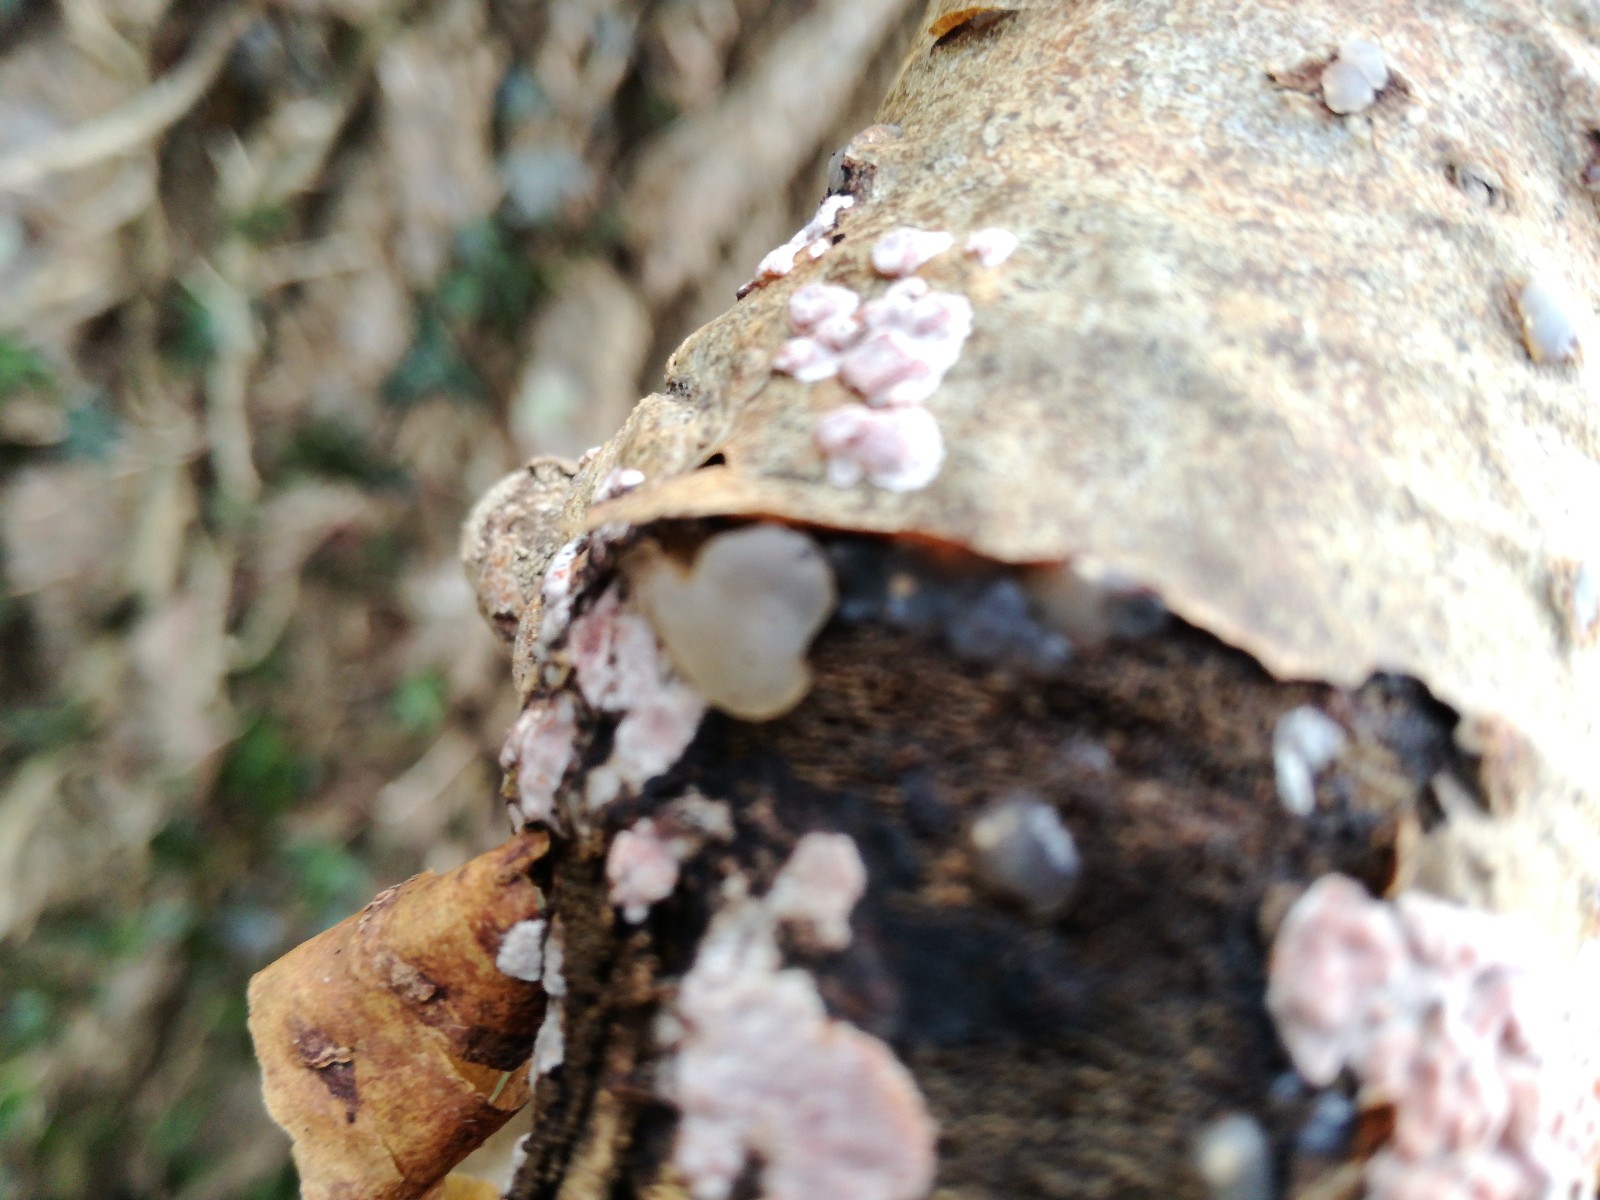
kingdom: Fungi
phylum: Basidiomycota
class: Agaricomycetes
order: Auriculariales
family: Hyaloriaceae
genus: Myxarium
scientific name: Myxarium nucleatum
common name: klar bævretop
